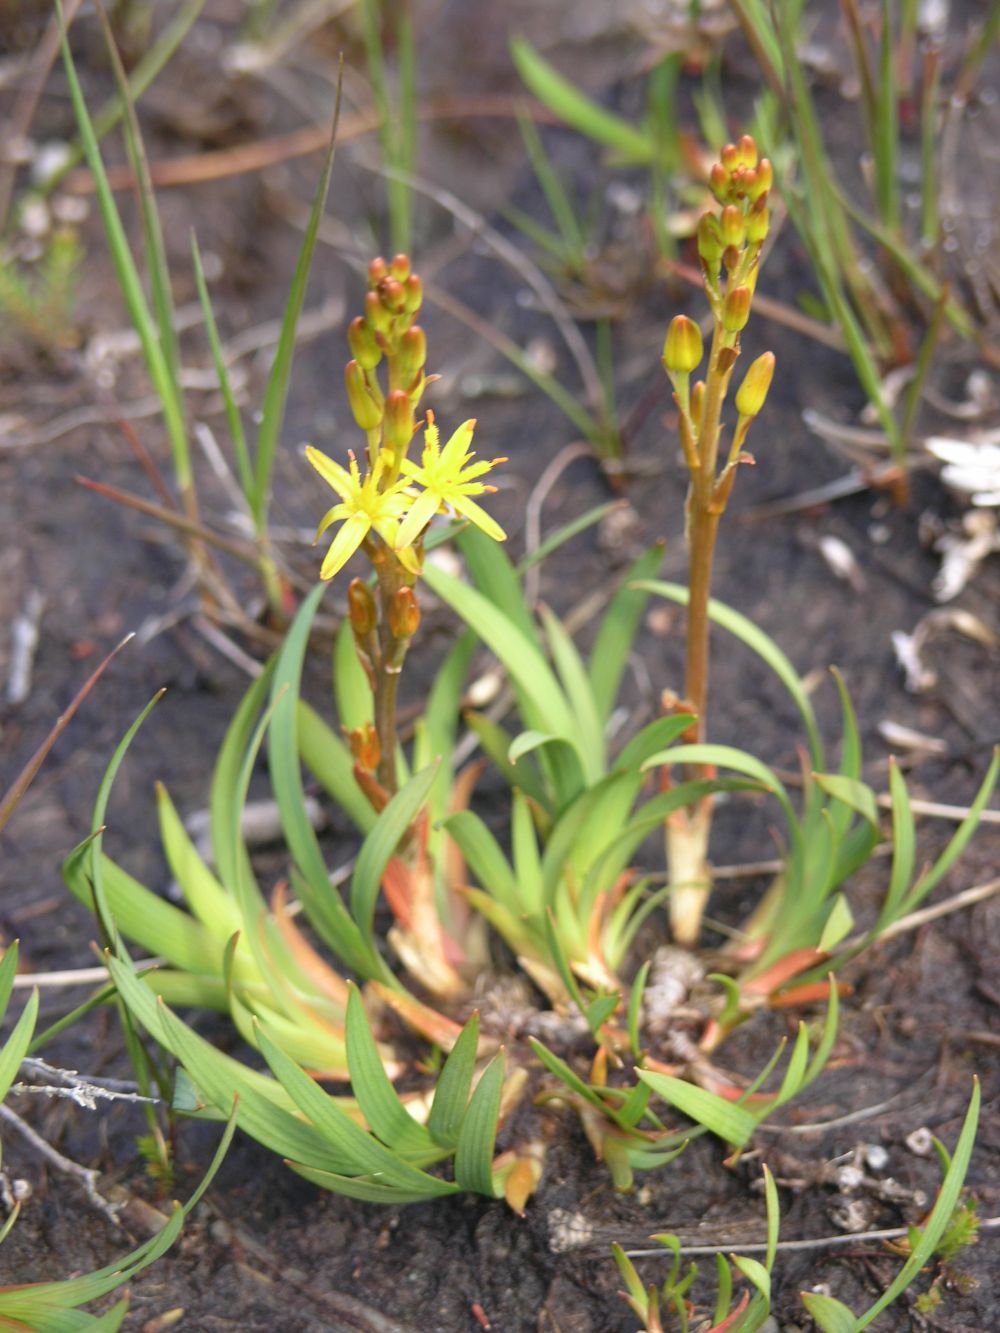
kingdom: Plantae
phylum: Tracheophyta
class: Liliopsida
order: Dioscoreales
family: Nartheciaceae
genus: Narthecium
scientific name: Narthecium ossifragum
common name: Bog asphodel
